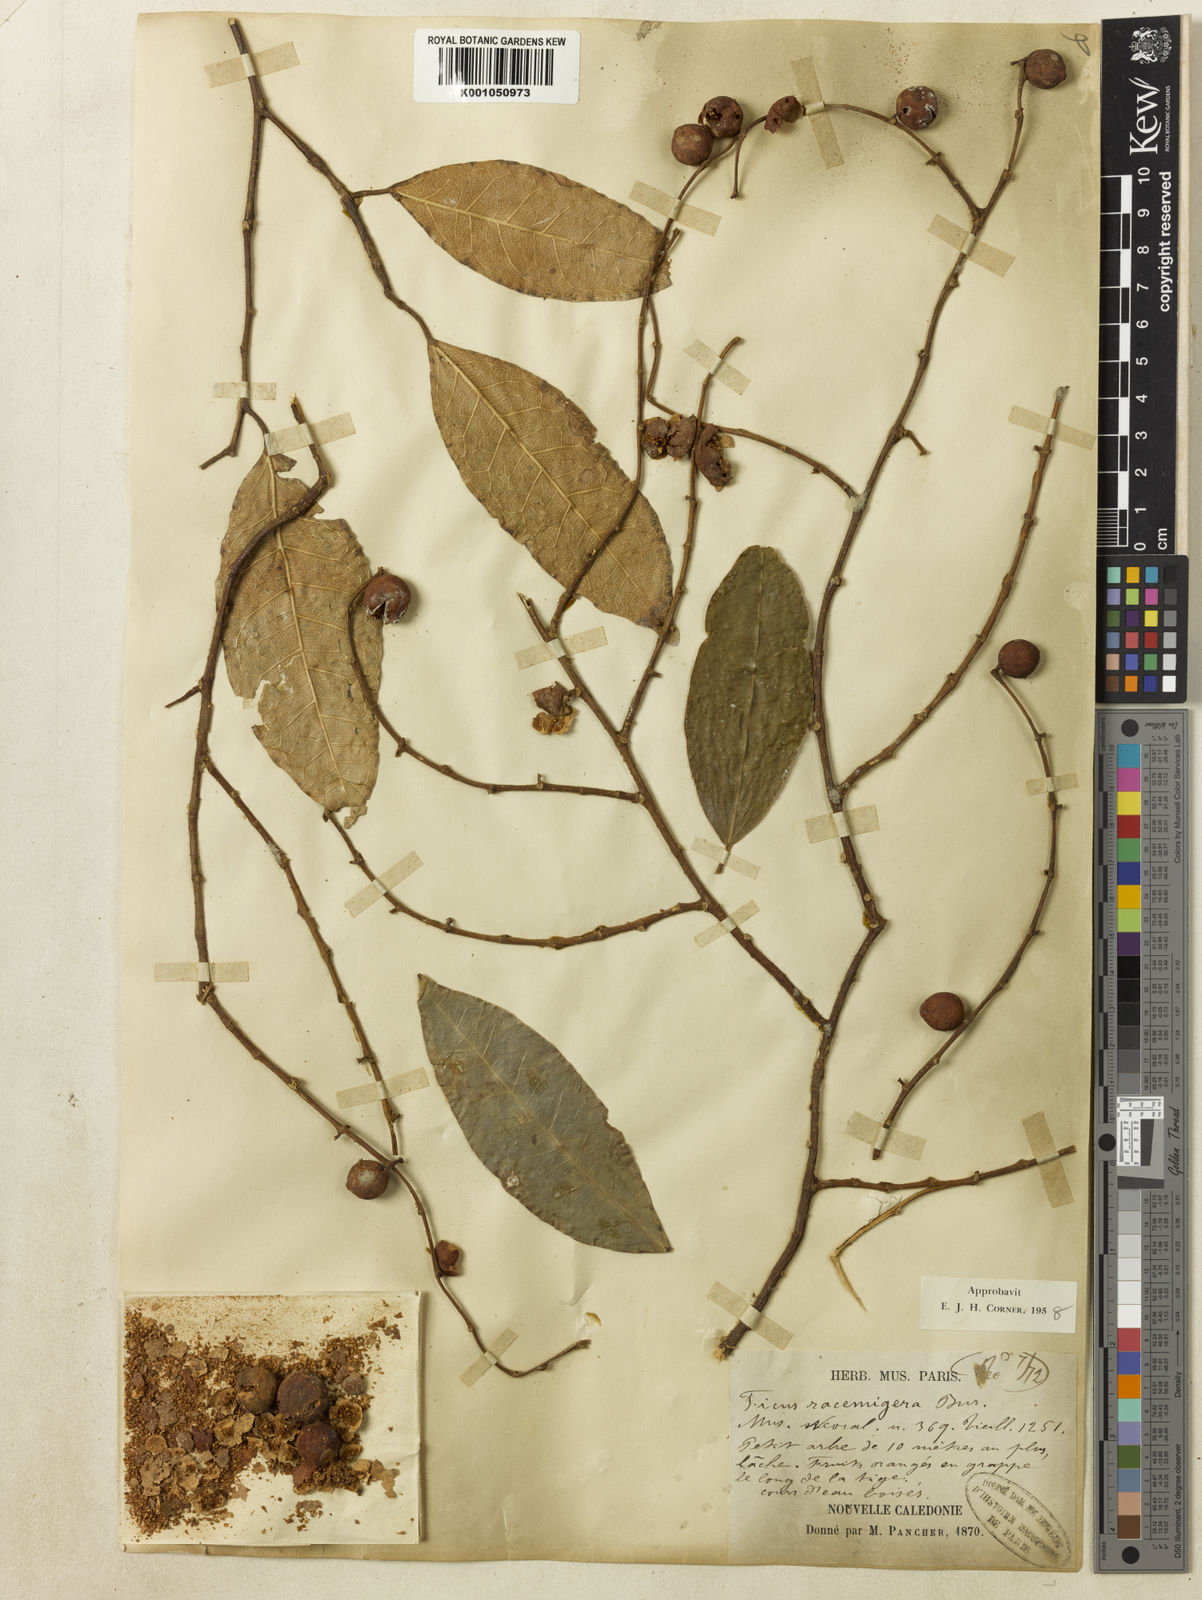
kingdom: Plantae
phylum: Tracheophyta
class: Magnoliopsida
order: Rosales
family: Moraceae
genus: Ficus
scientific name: Ficus racemigera
